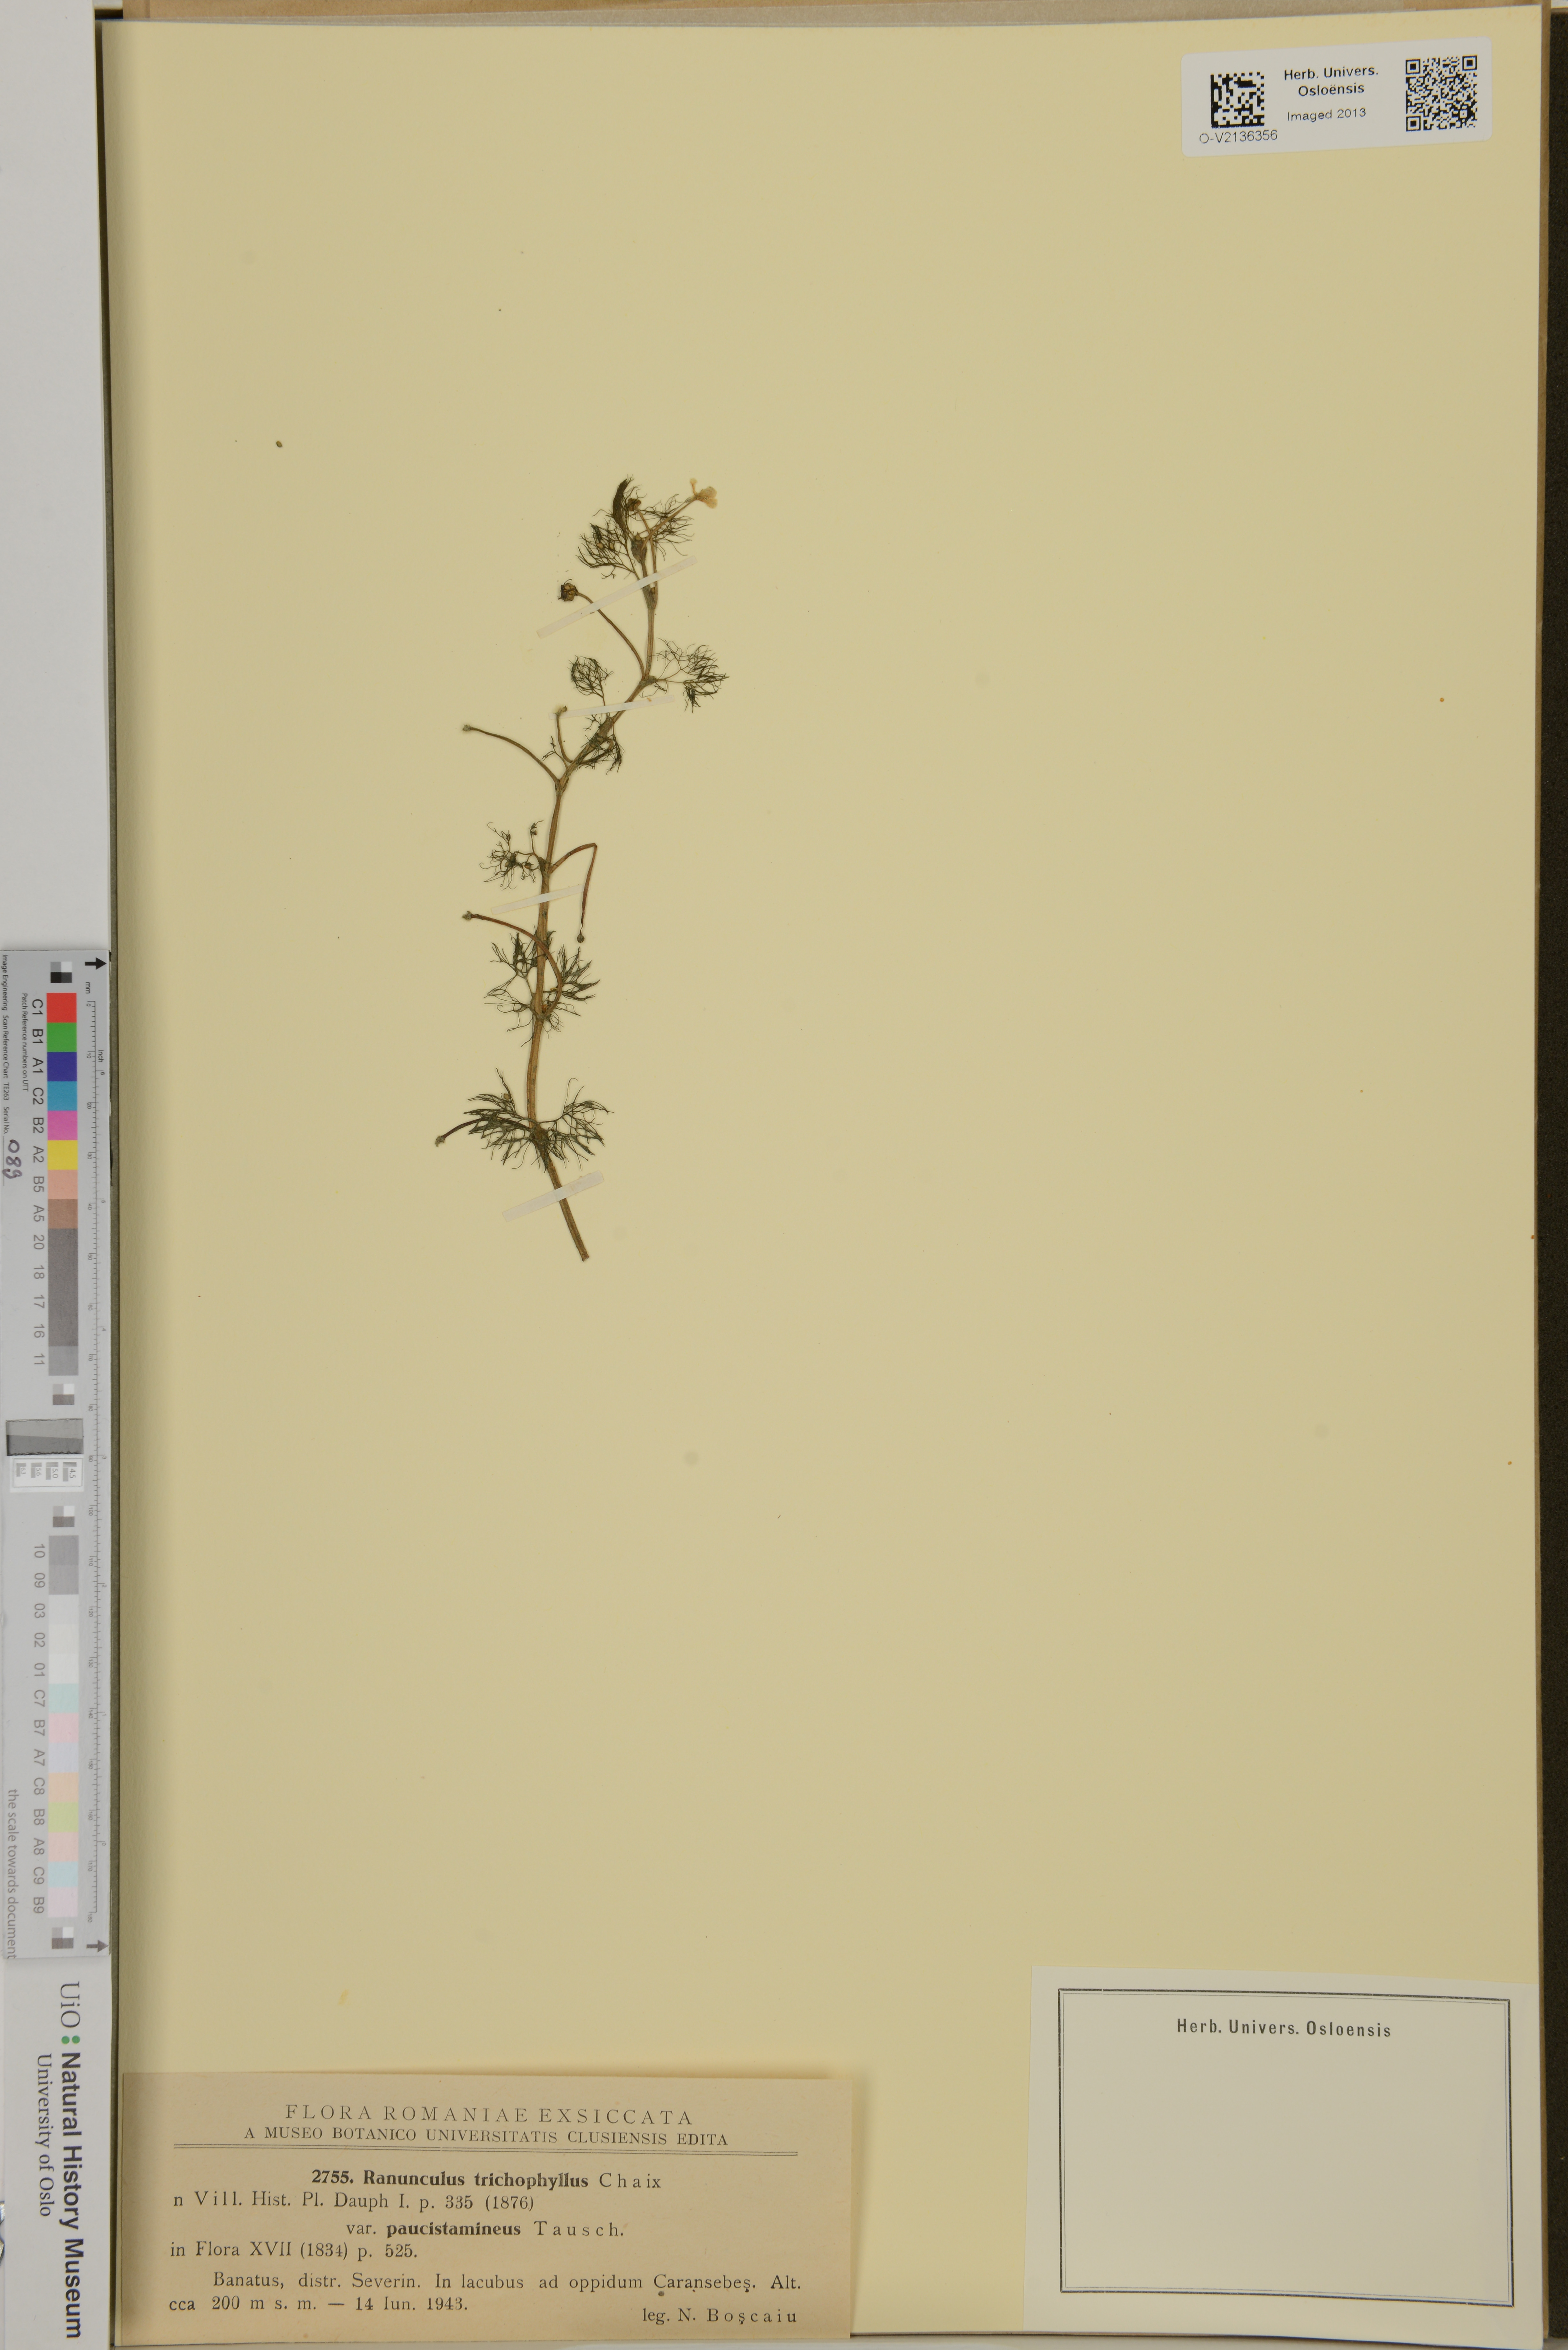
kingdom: Plantae
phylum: Tracheophyta
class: Magnoliopsida
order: Ranunculales
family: Ranunculaceae
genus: Ranunculus
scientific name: Ranunculus trichophyllus
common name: Thread-leaved water-crowfoot
